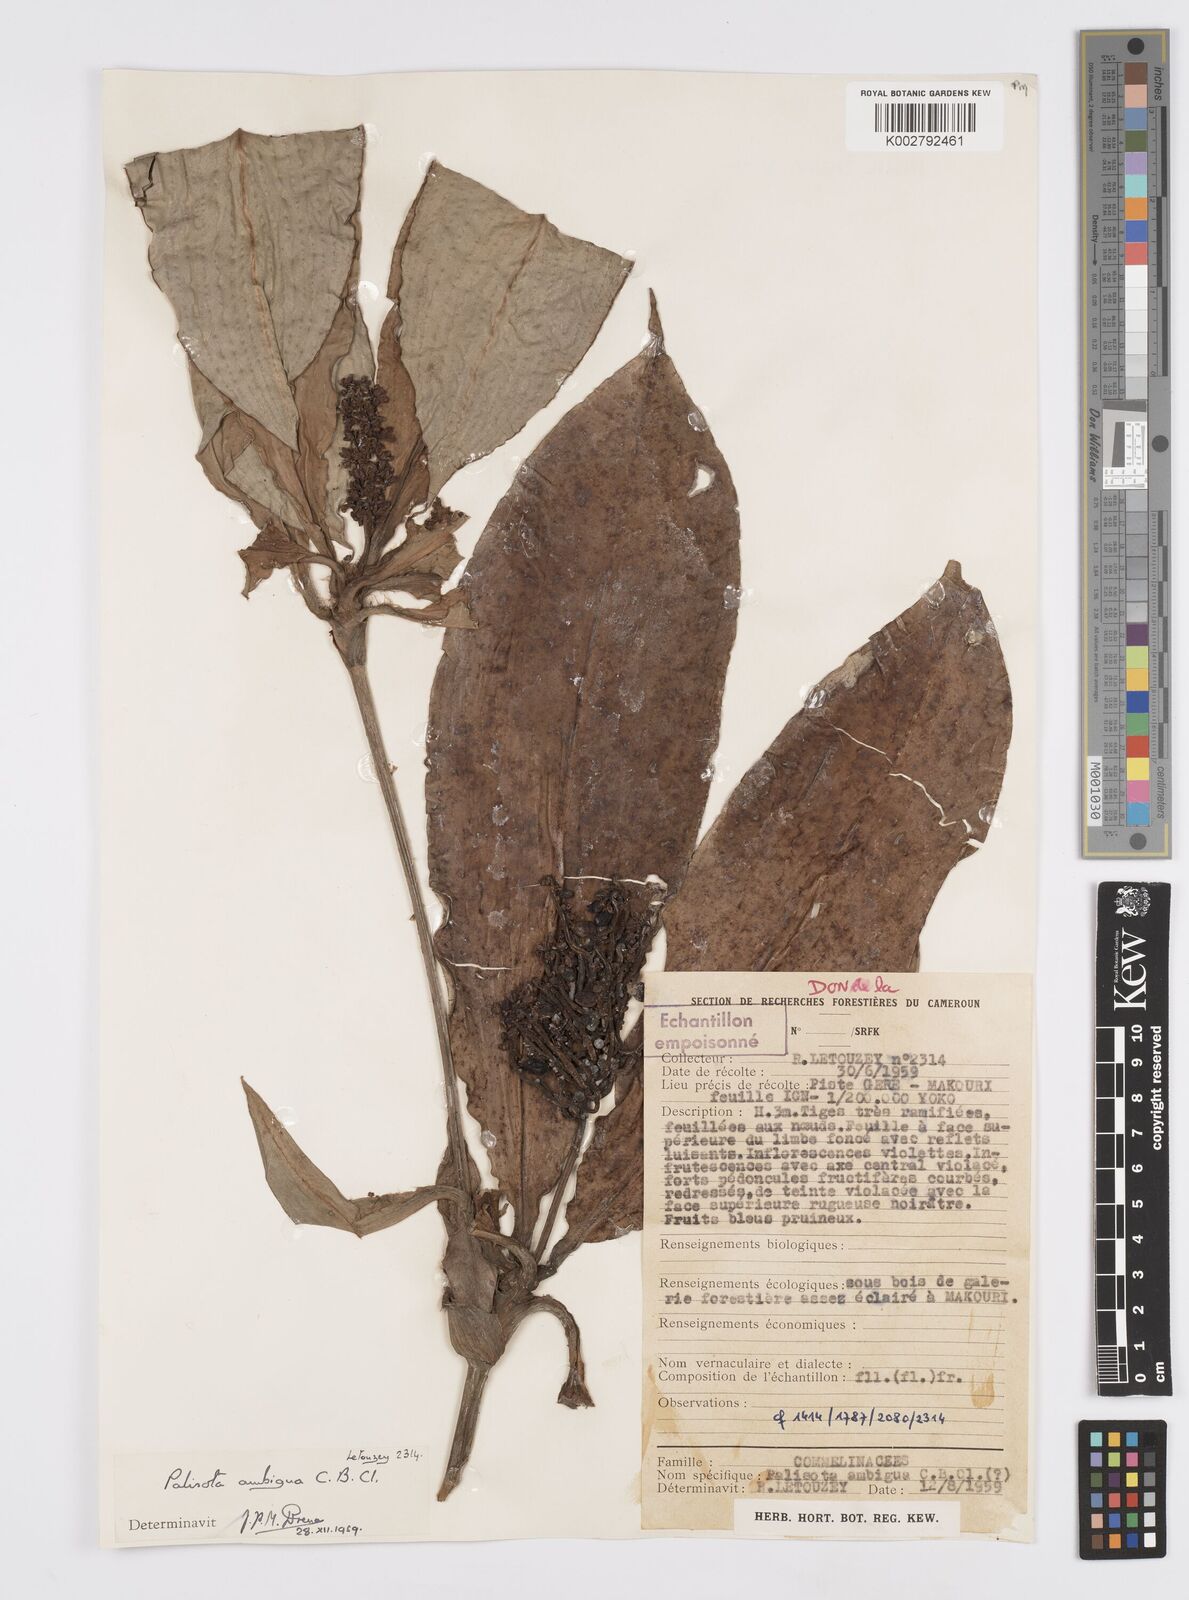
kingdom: Plantae
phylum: Tracheophyta
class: Liliopsida
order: Commelinales
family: Commelinaceae
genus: Palisota
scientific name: Palisota ambigua
